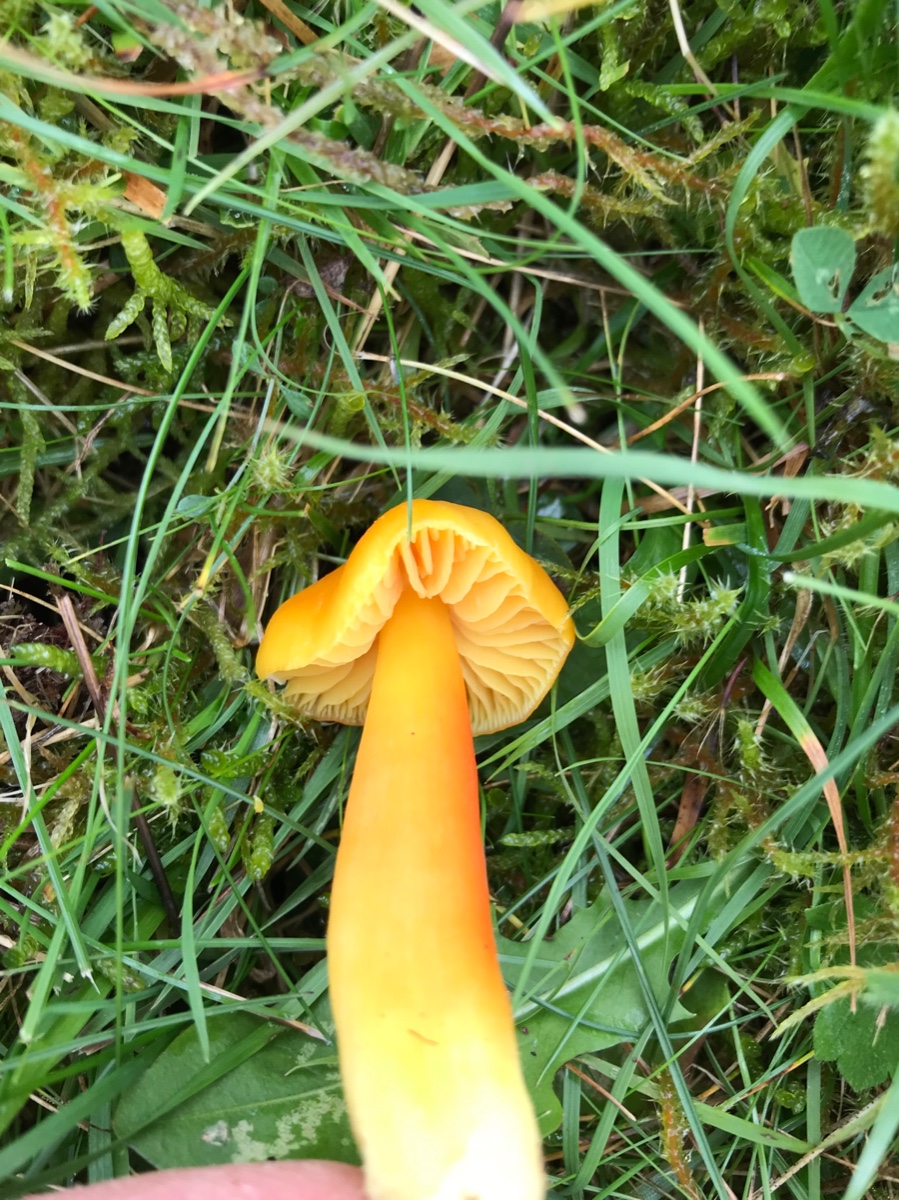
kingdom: Fungi
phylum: Basidiomycota
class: Agaricomycetes
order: Agaricales
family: Hygrophoraceae
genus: Hygrocybe
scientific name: Hygrocybe quieta
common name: tæge-vokshat
